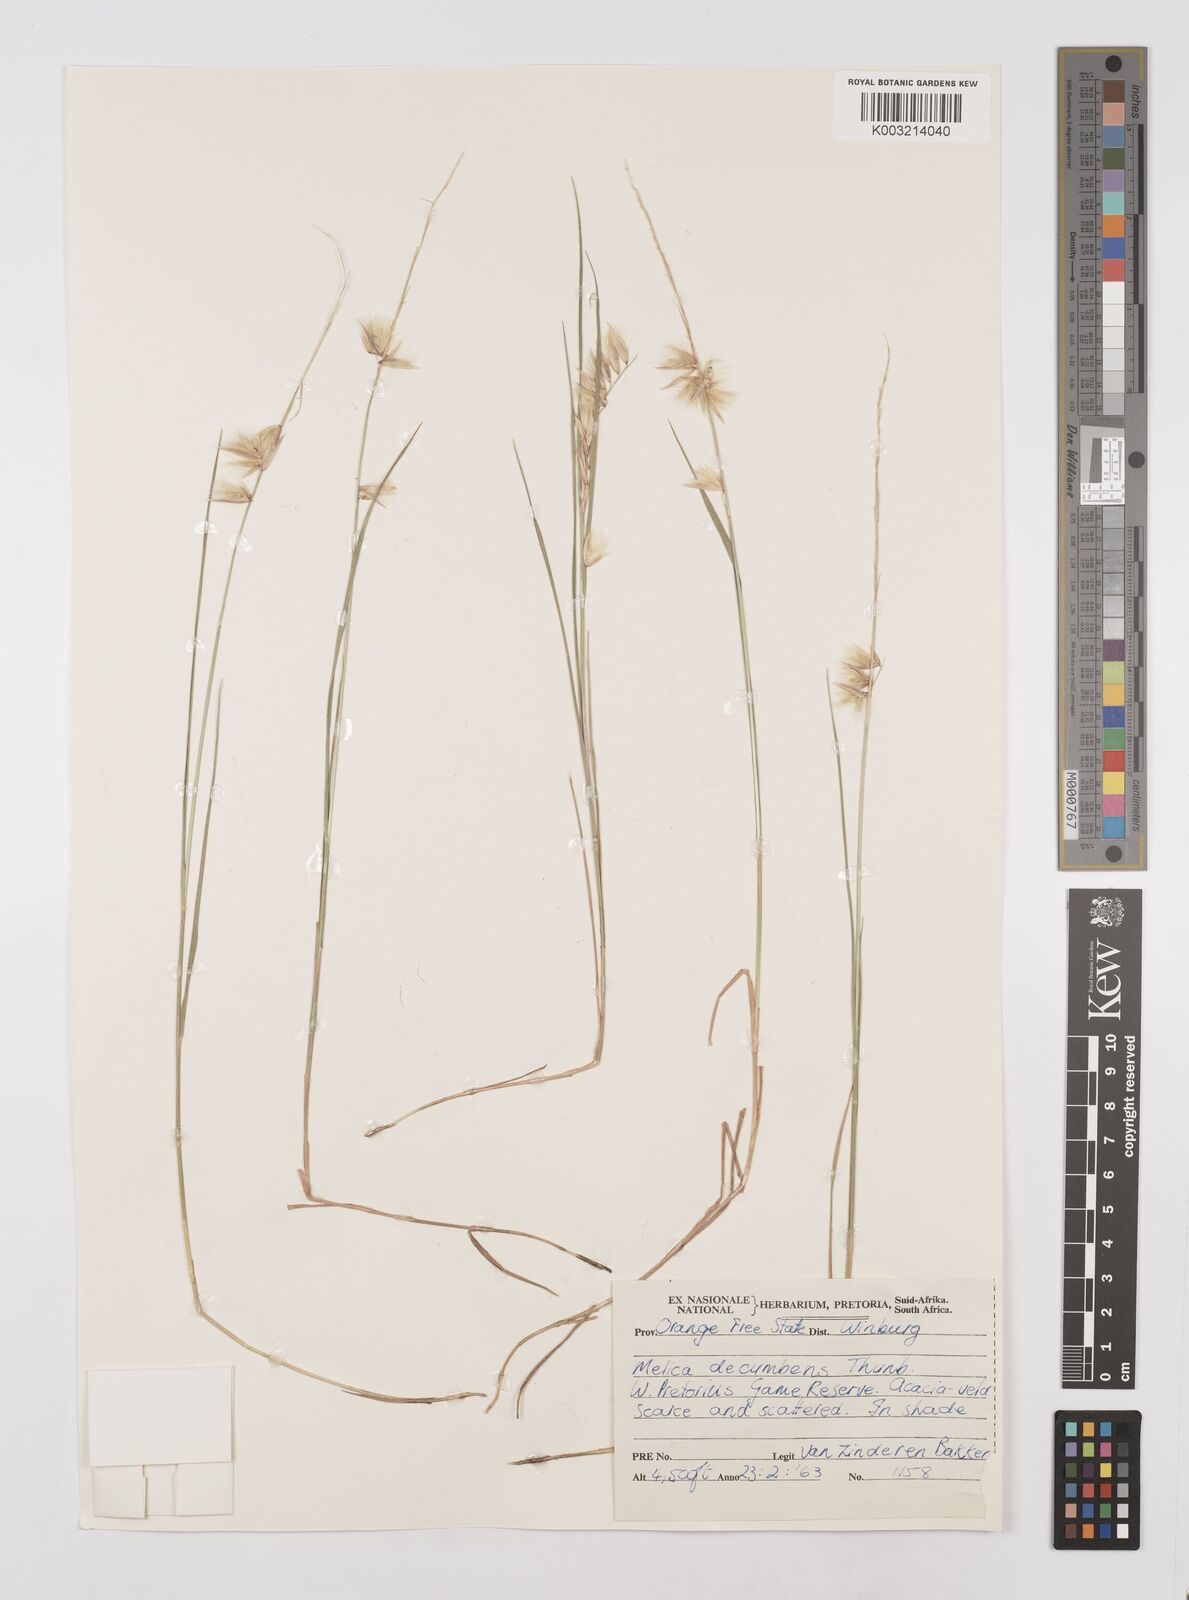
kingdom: Plantae
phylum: Tracheophyta
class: Liliopsida
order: Poales
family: Poaceae
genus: Melica
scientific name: Melica dendroides
